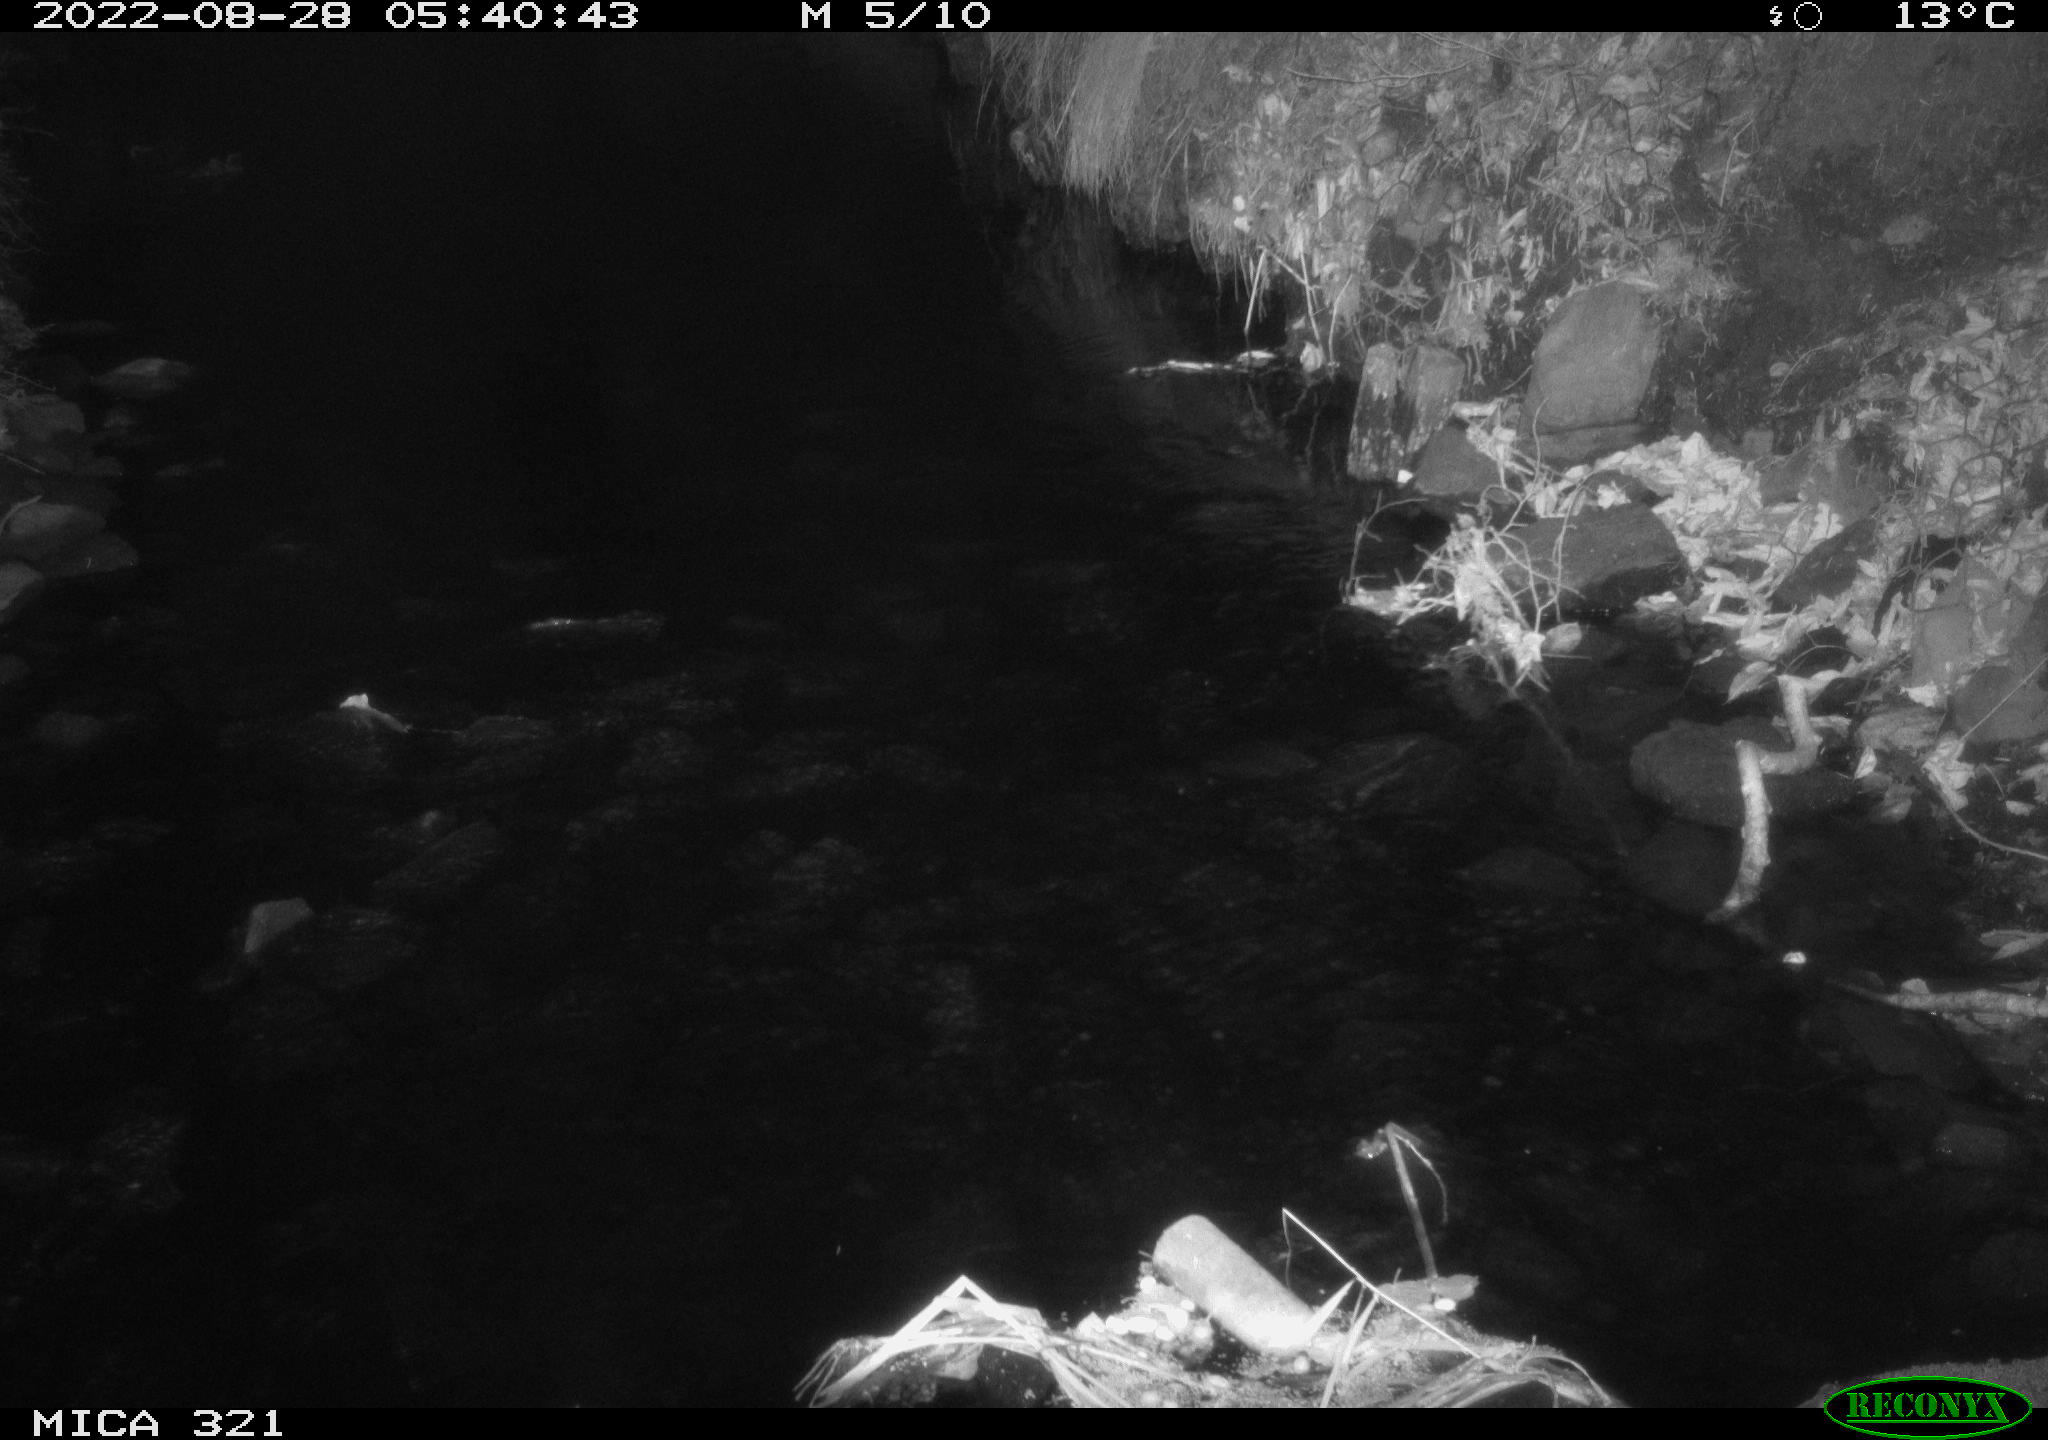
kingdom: Animalia
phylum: Chordata
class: Aves
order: Anseriformes
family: Anatidae
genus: Anas
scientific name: Anas platyrhynchos
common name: Mallard
